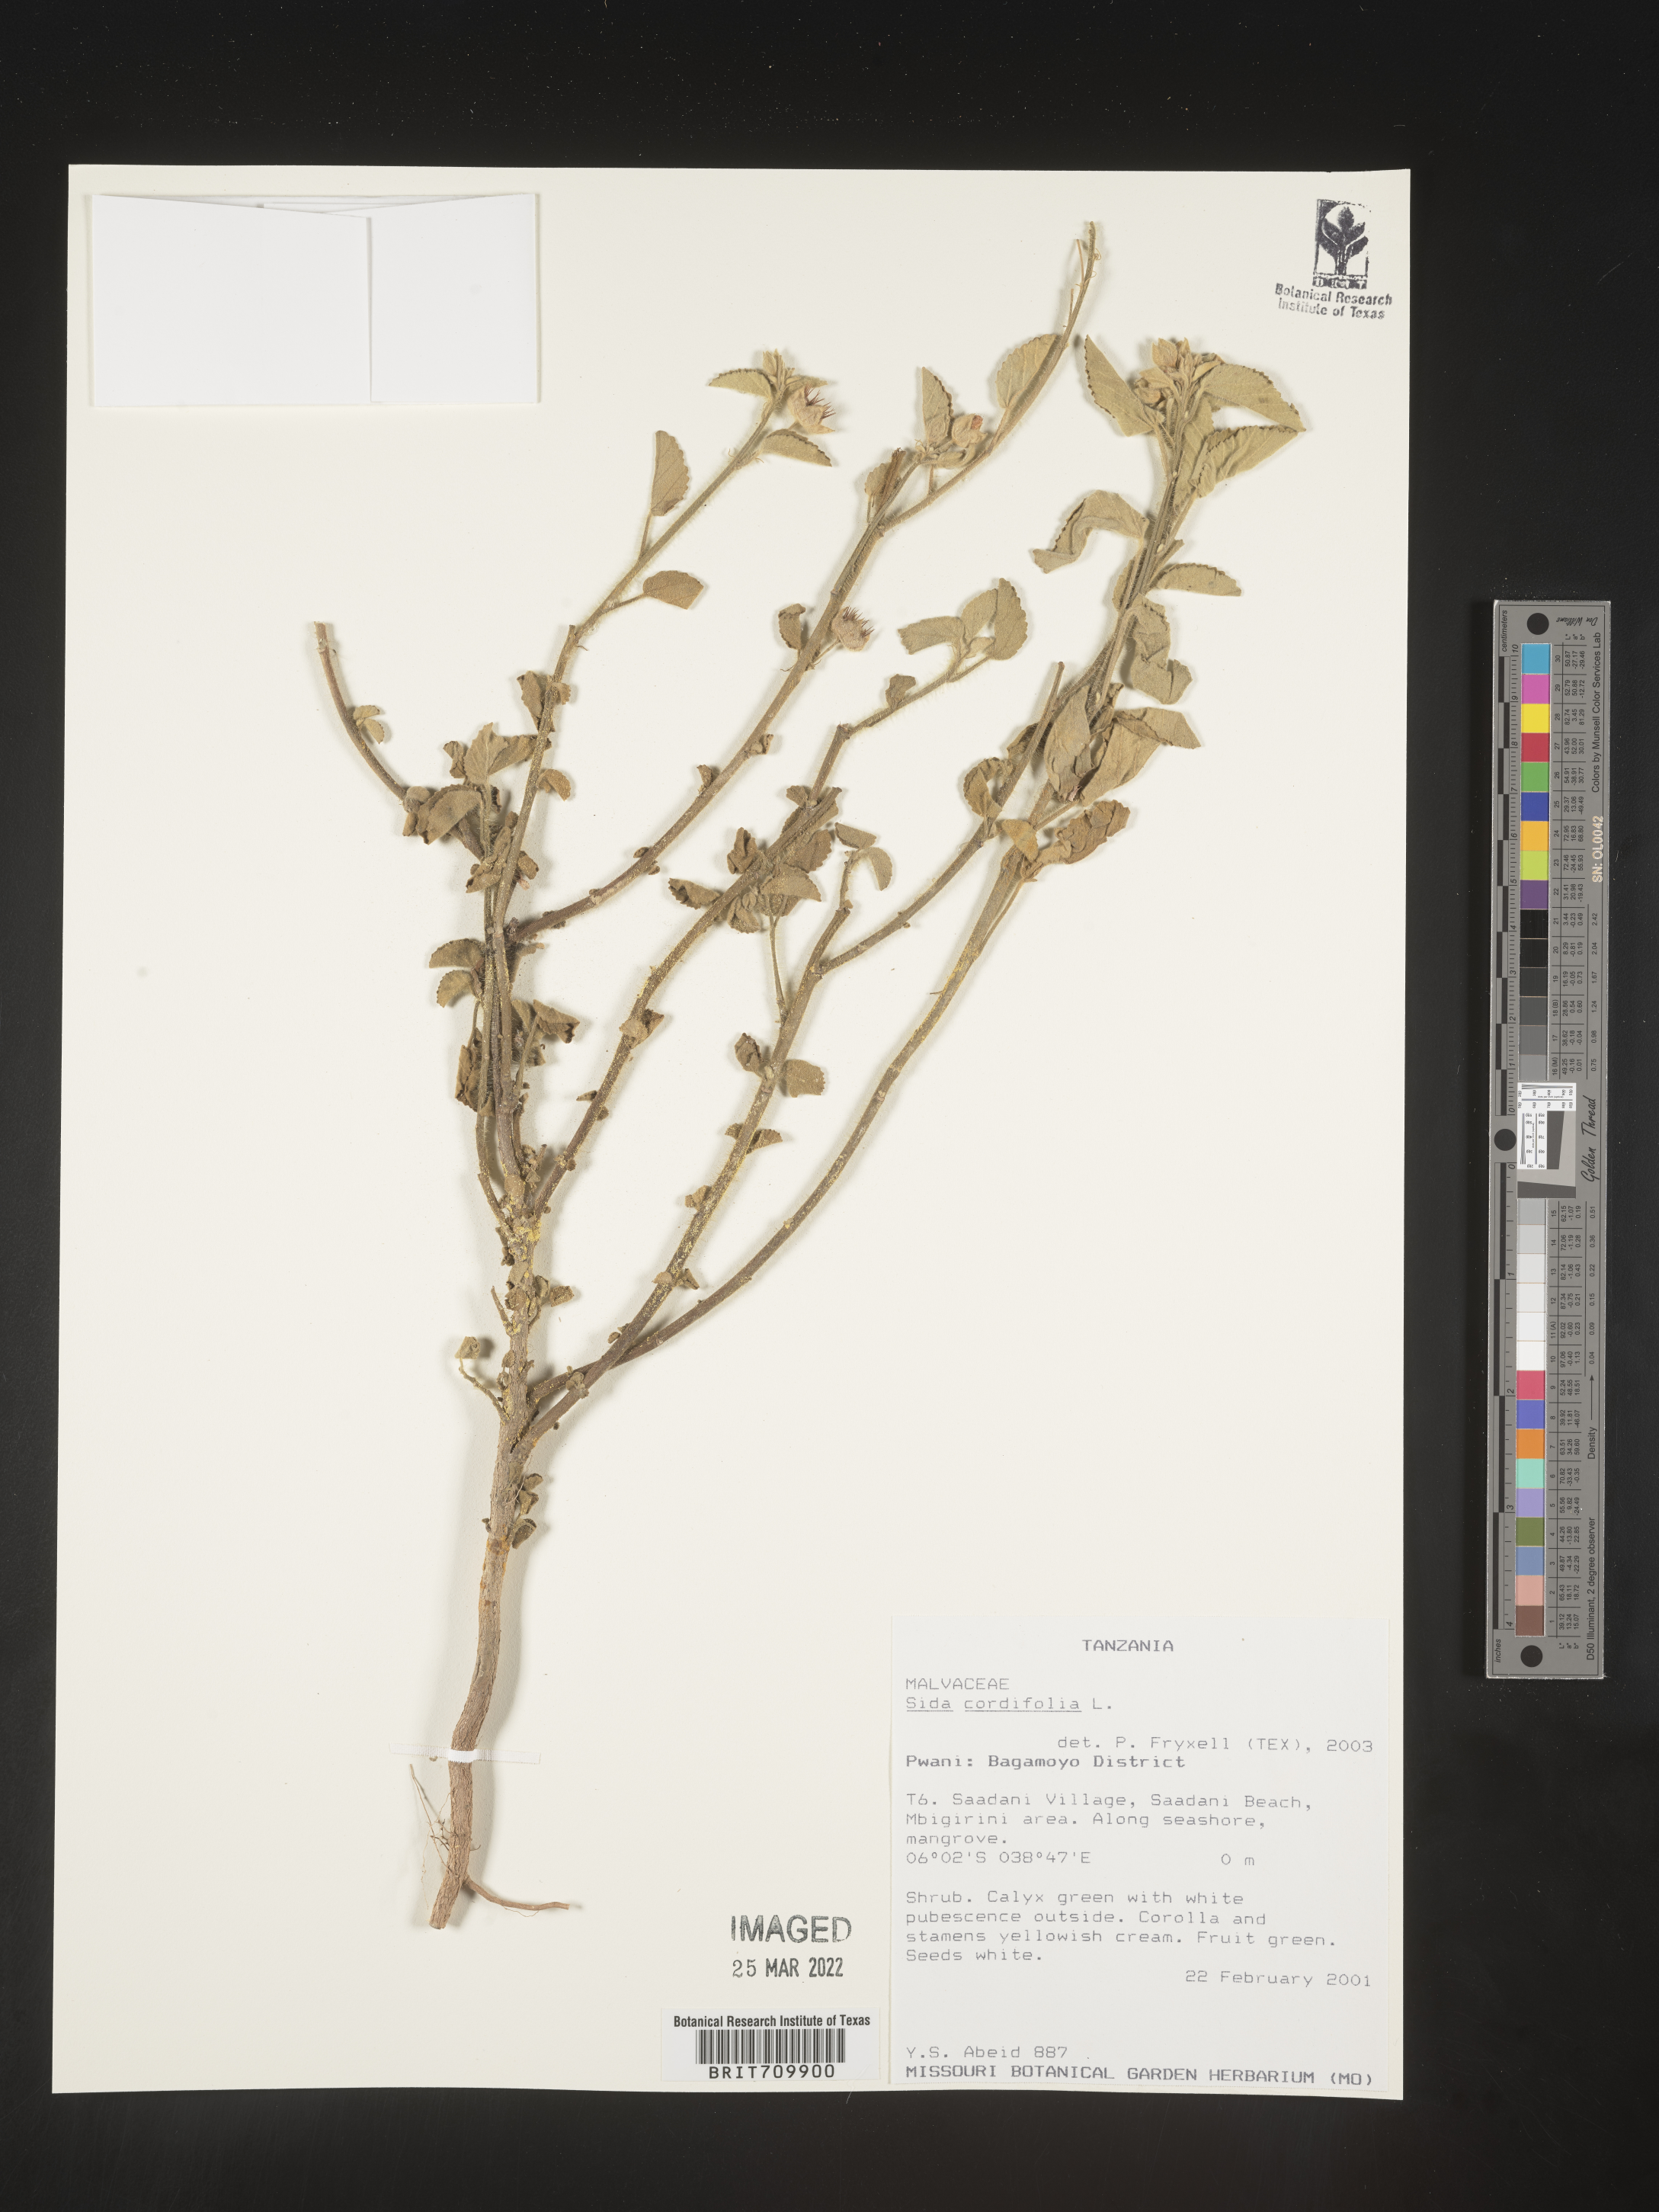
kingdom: Plantae
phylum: Tracheophyta
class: Magnoliopsida
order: Malvales
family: Malvaceae
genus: Sida
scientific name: Sida
